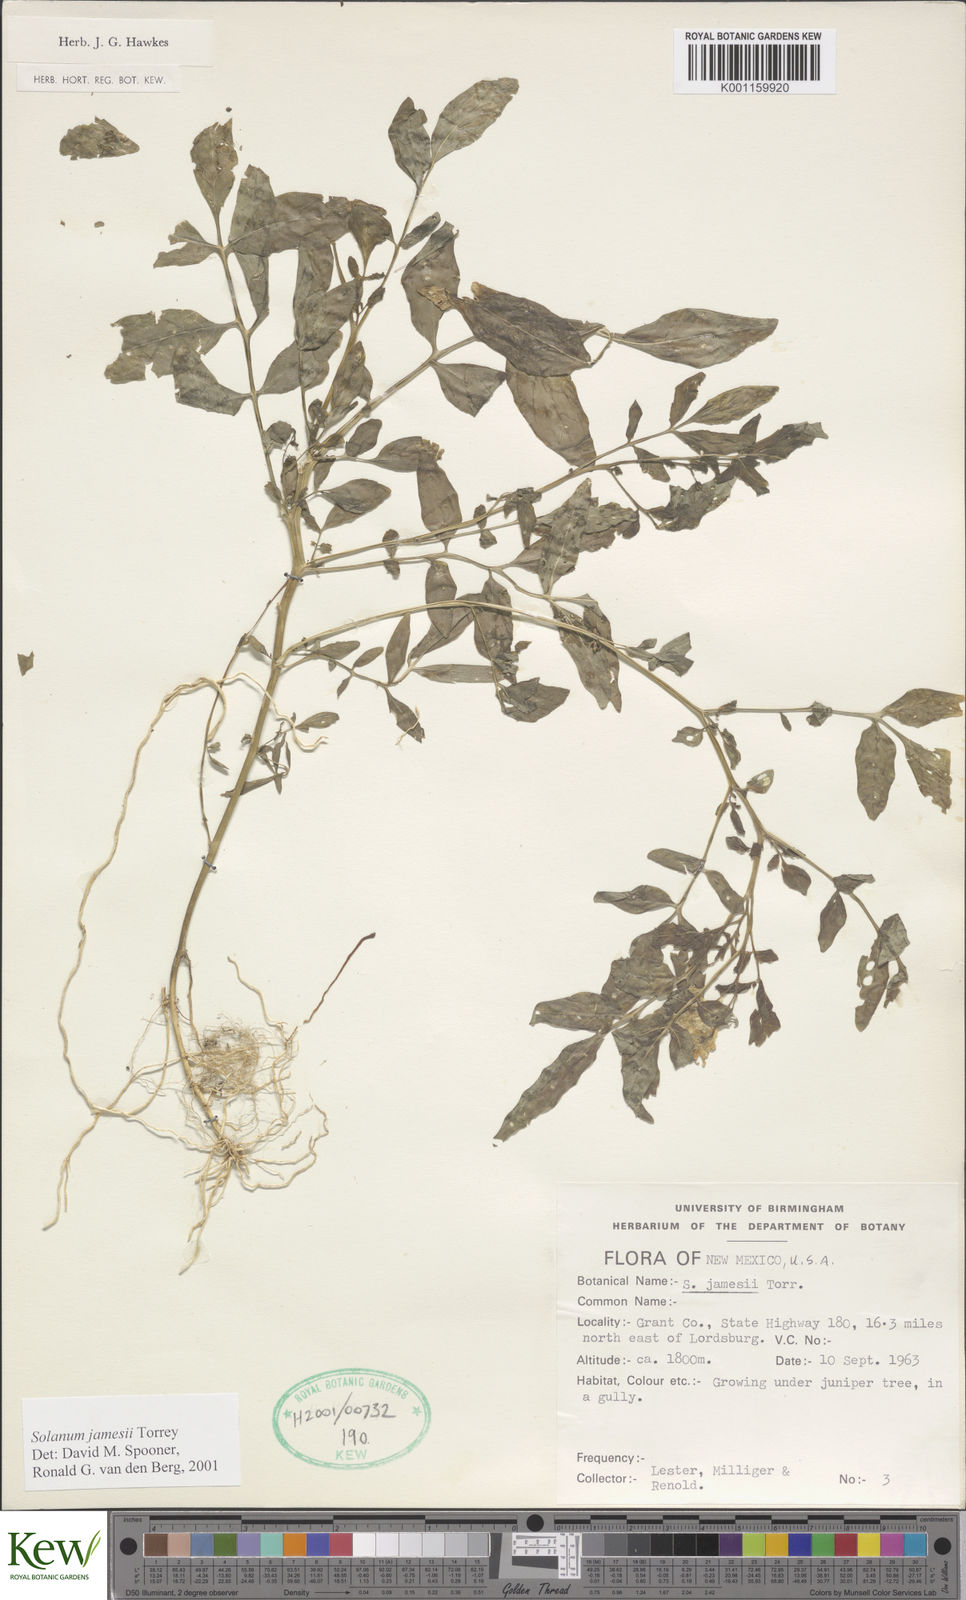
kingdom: Plantae
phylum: Tracheophyta
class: Magnoliopsida
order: Solanales
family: Solanaceae
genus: Solanum
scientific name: Solanum jamesii
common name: Wild potato
